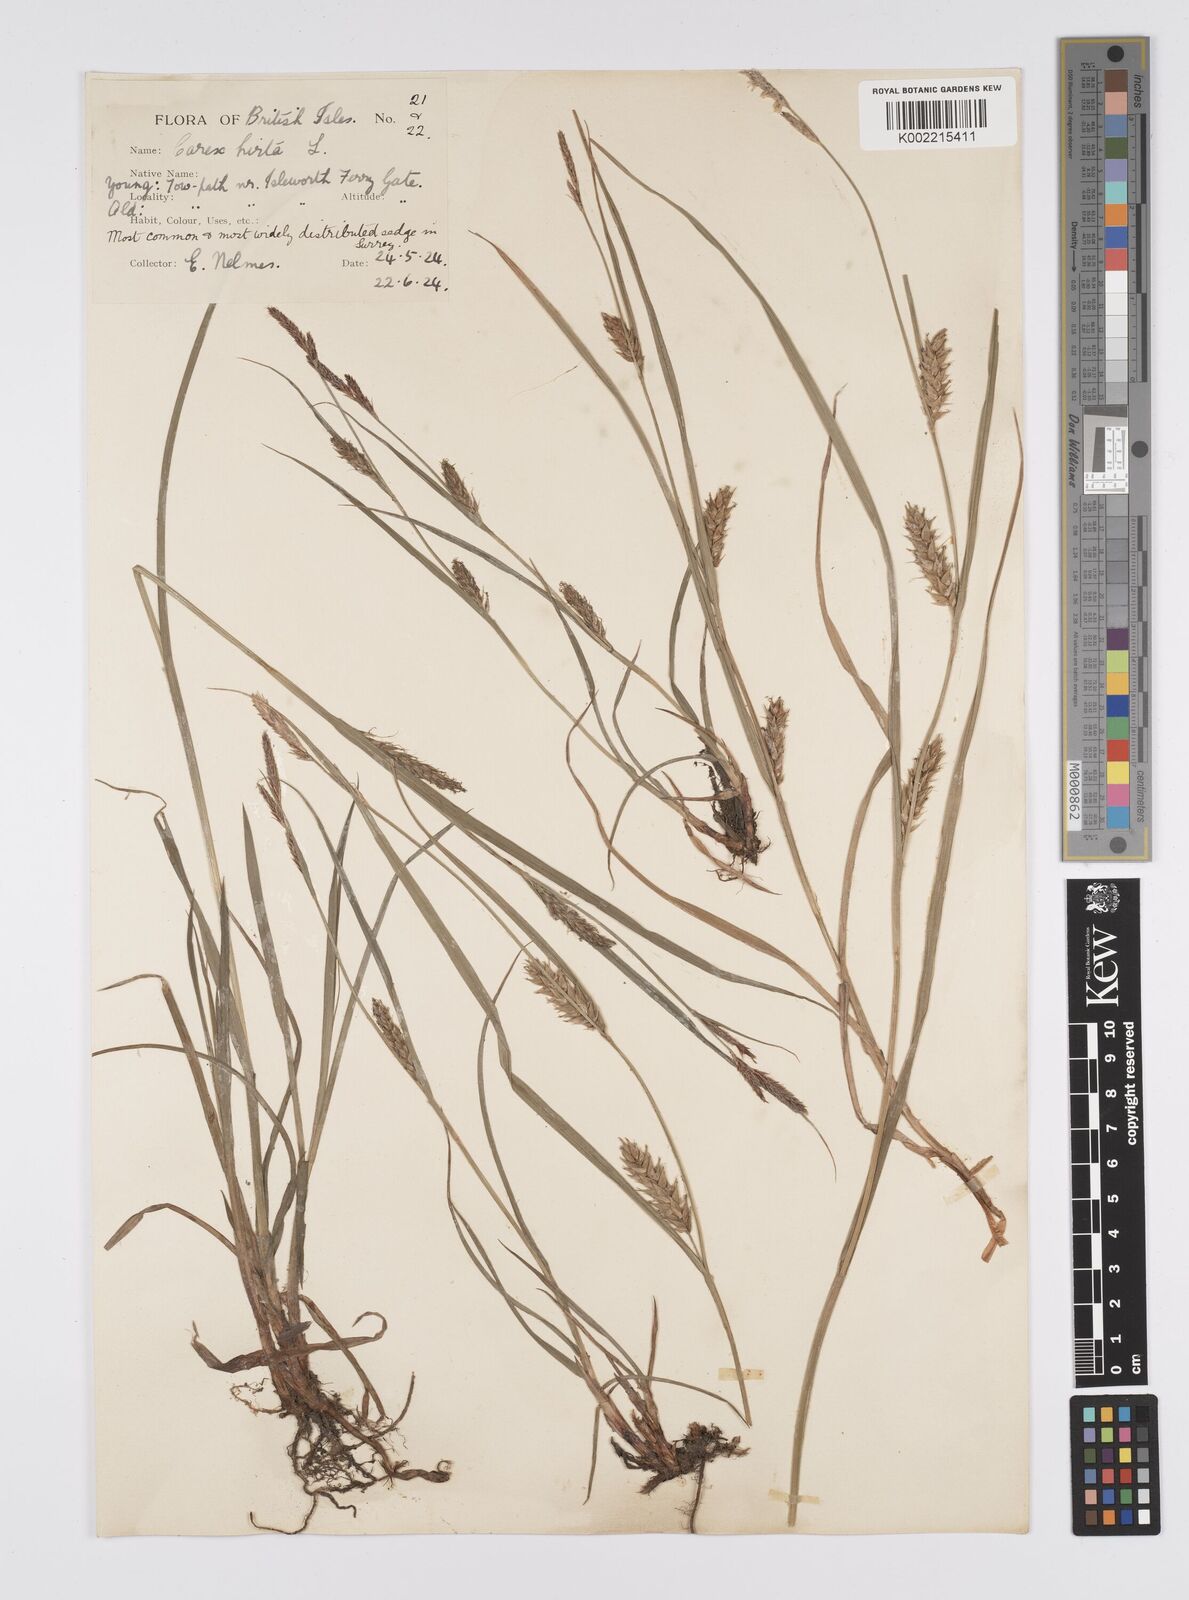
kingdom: Plantae
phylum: Tracheophyta
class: Liliopsida
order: Poales
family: Cyperaceae
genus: Carex
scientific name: Carex hirta
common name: Hairy sedge
